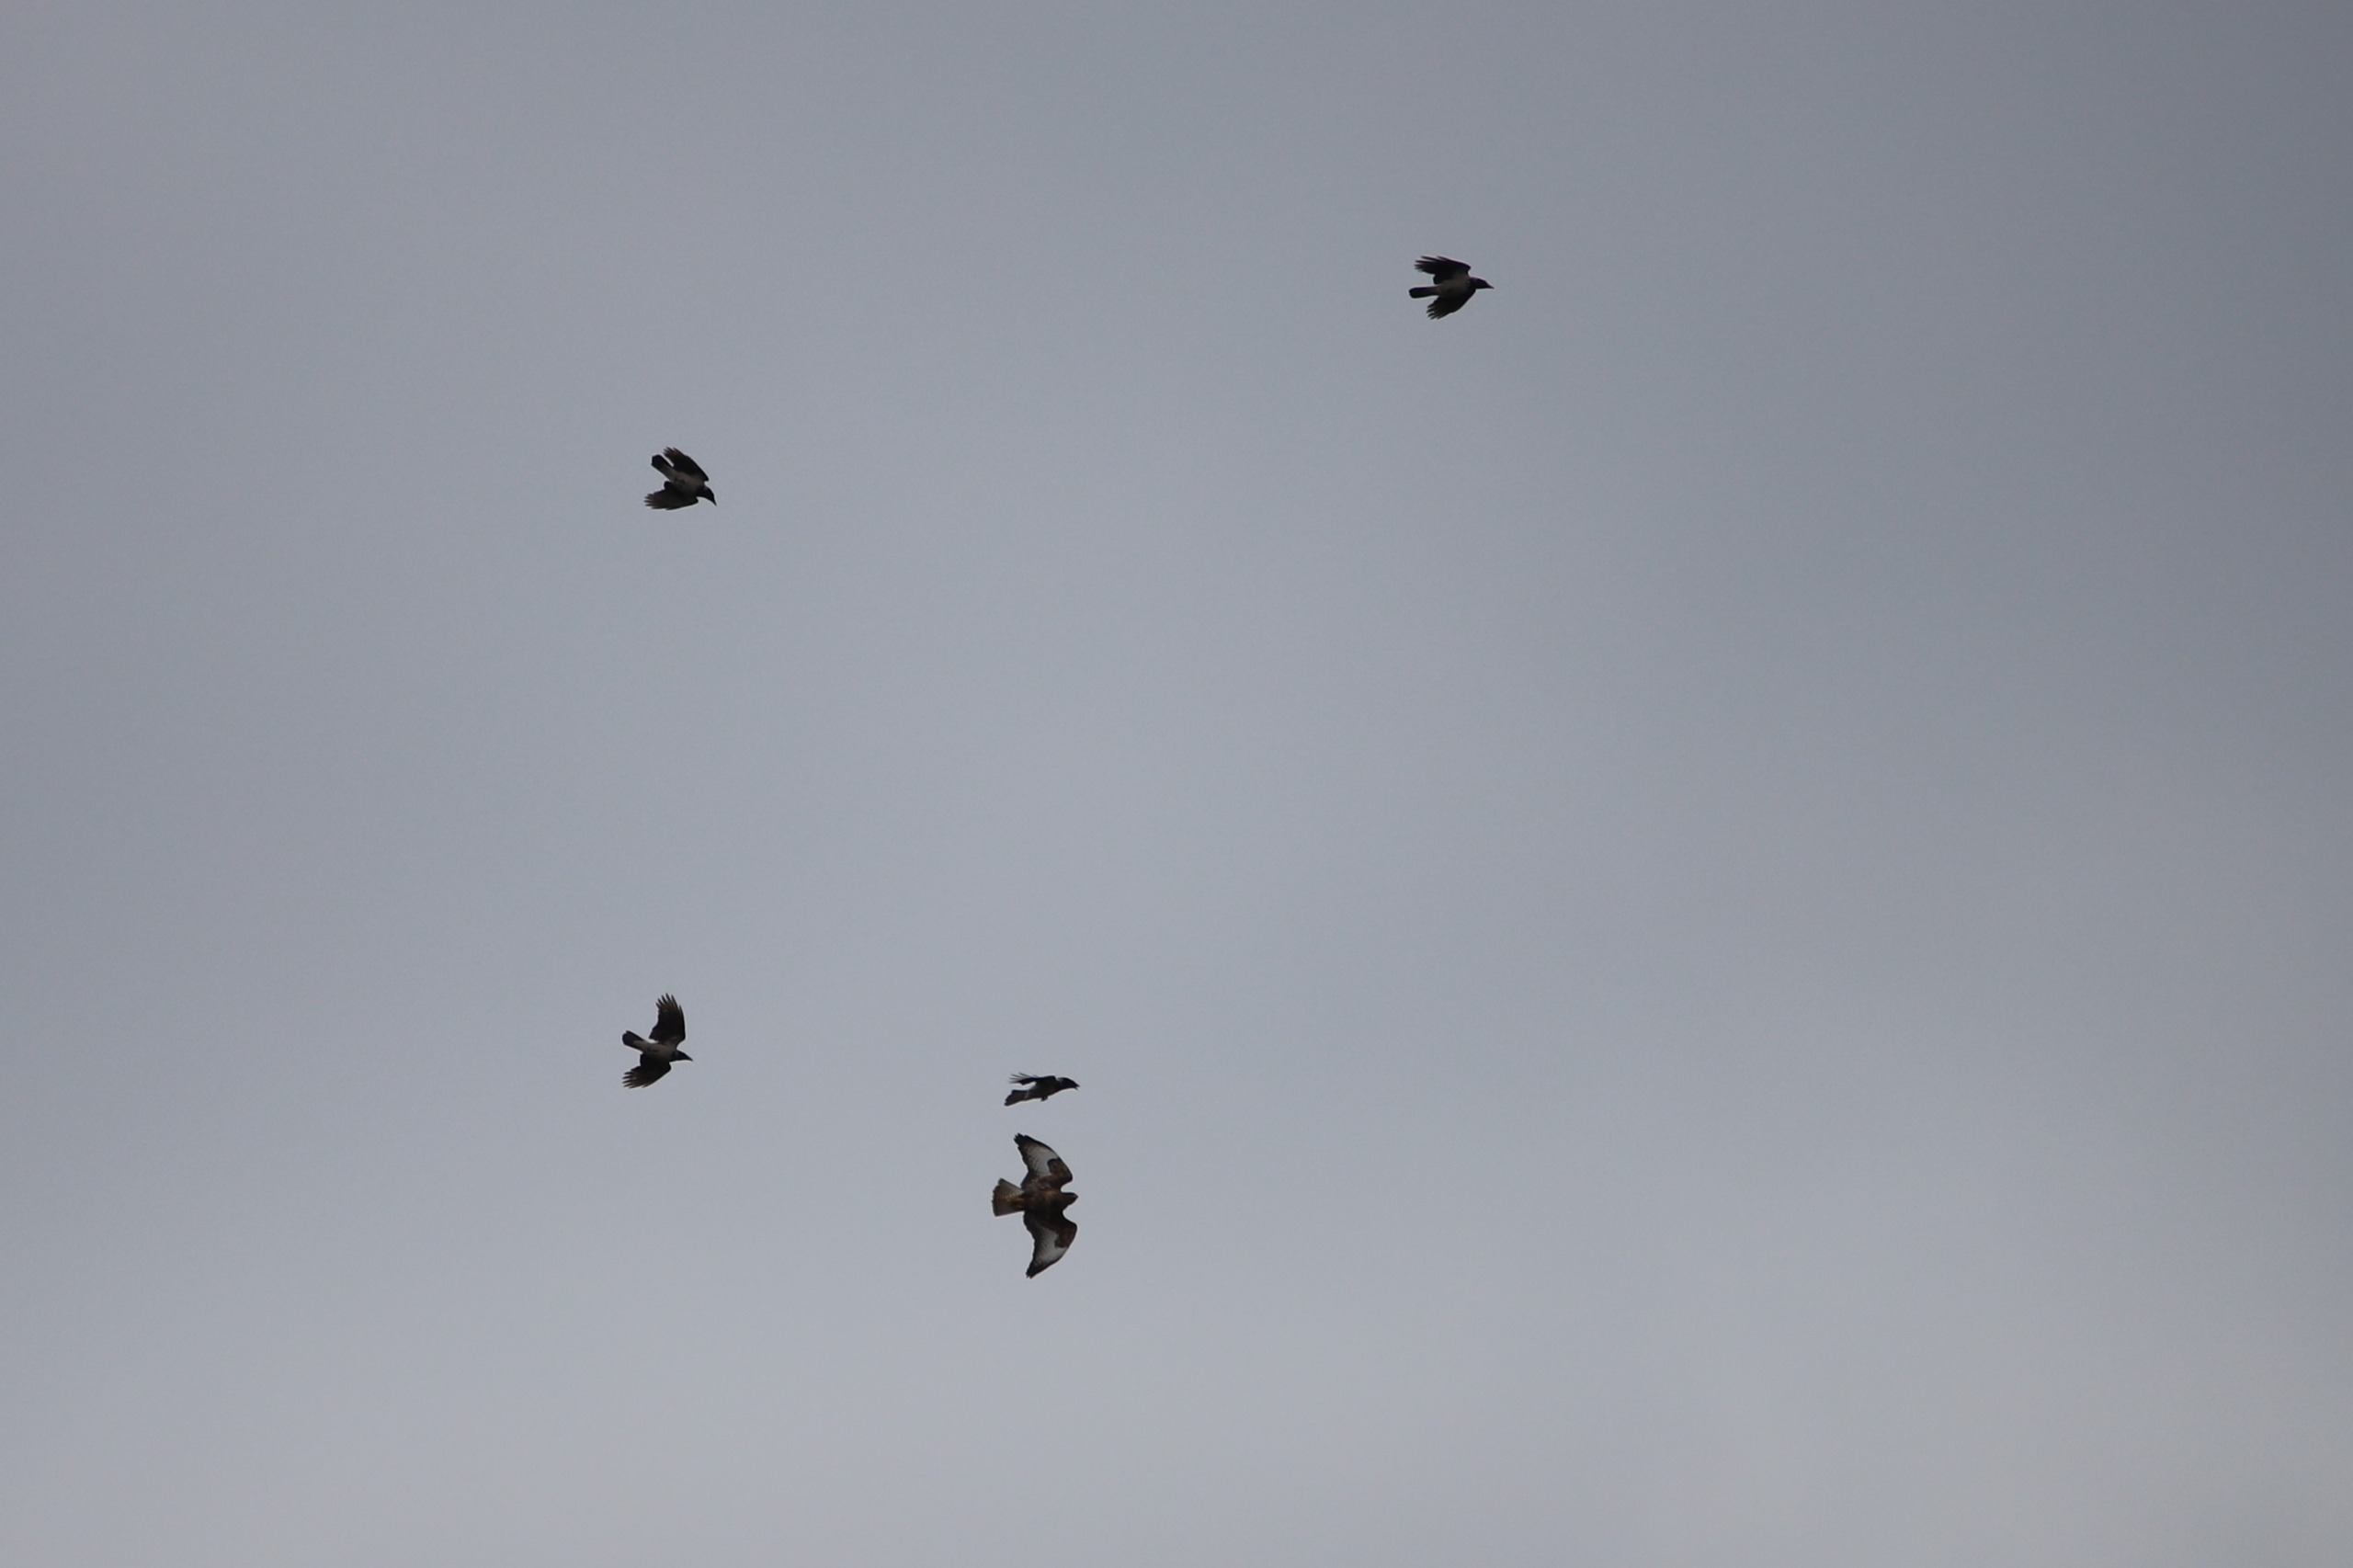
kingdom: Animalia
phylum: Chordata
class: Aves
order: Accipitriformes
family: Accipitridae
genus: Buteo
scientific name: Buteo buteo
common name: Musvåge
